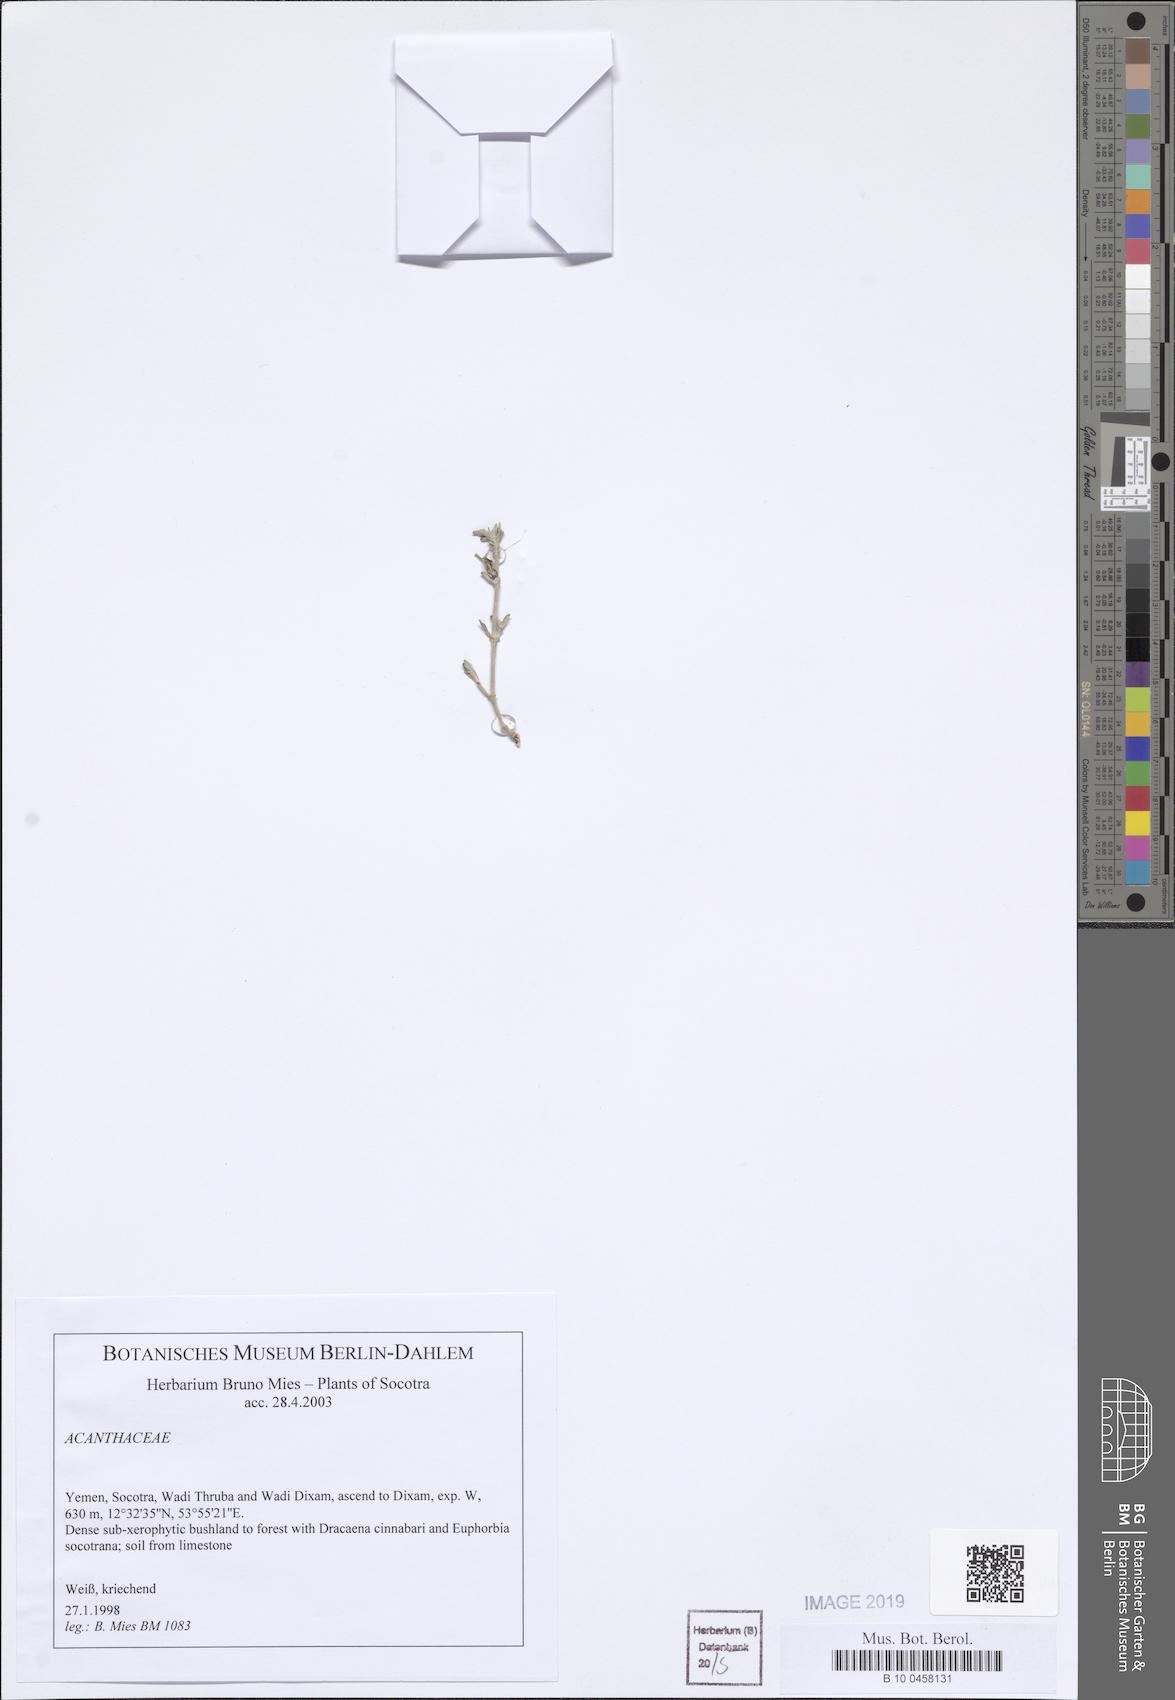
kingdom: Plantae
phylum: Tracheophyta
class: Magnoliopsida
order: Lamiales
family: Acanthaceae
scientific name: Acanthaceae
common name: Acanthaceae
